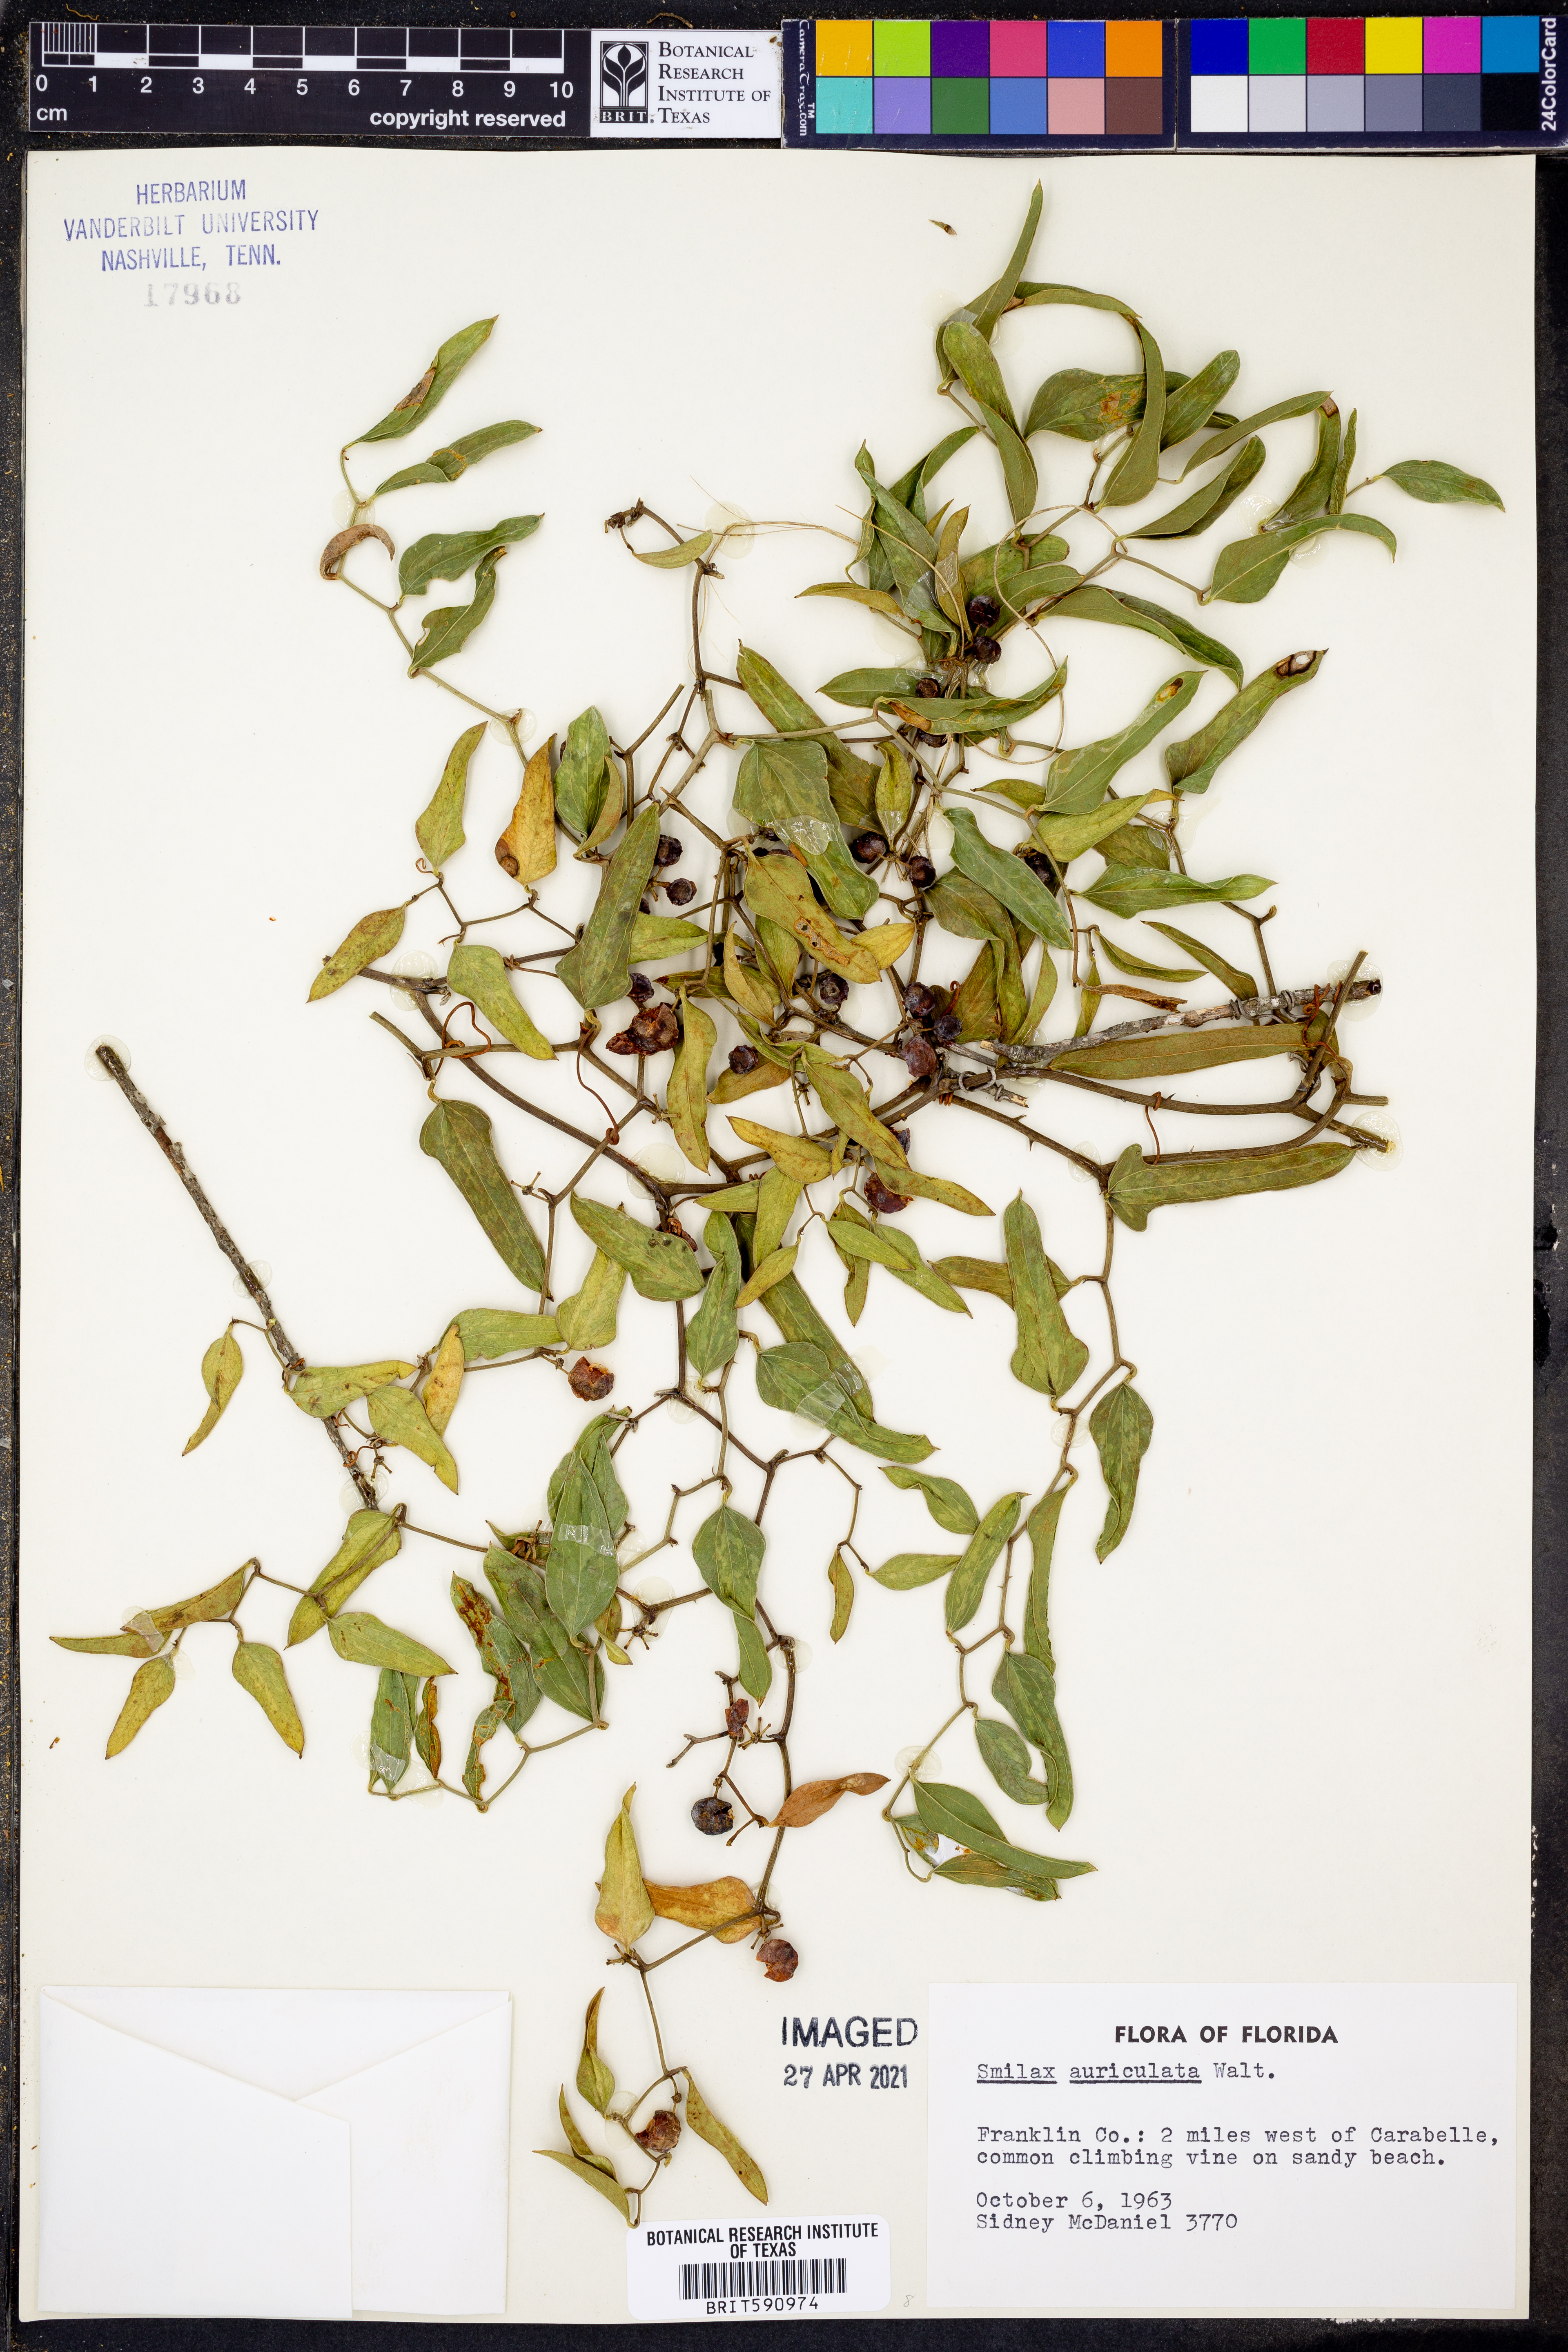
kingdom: Plantae
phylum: Tracheophyta
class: Liliopsida
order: Liliales
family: Smilacaceae
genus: Smilax
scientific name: Smilax auriculata
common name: Wild bamboo
